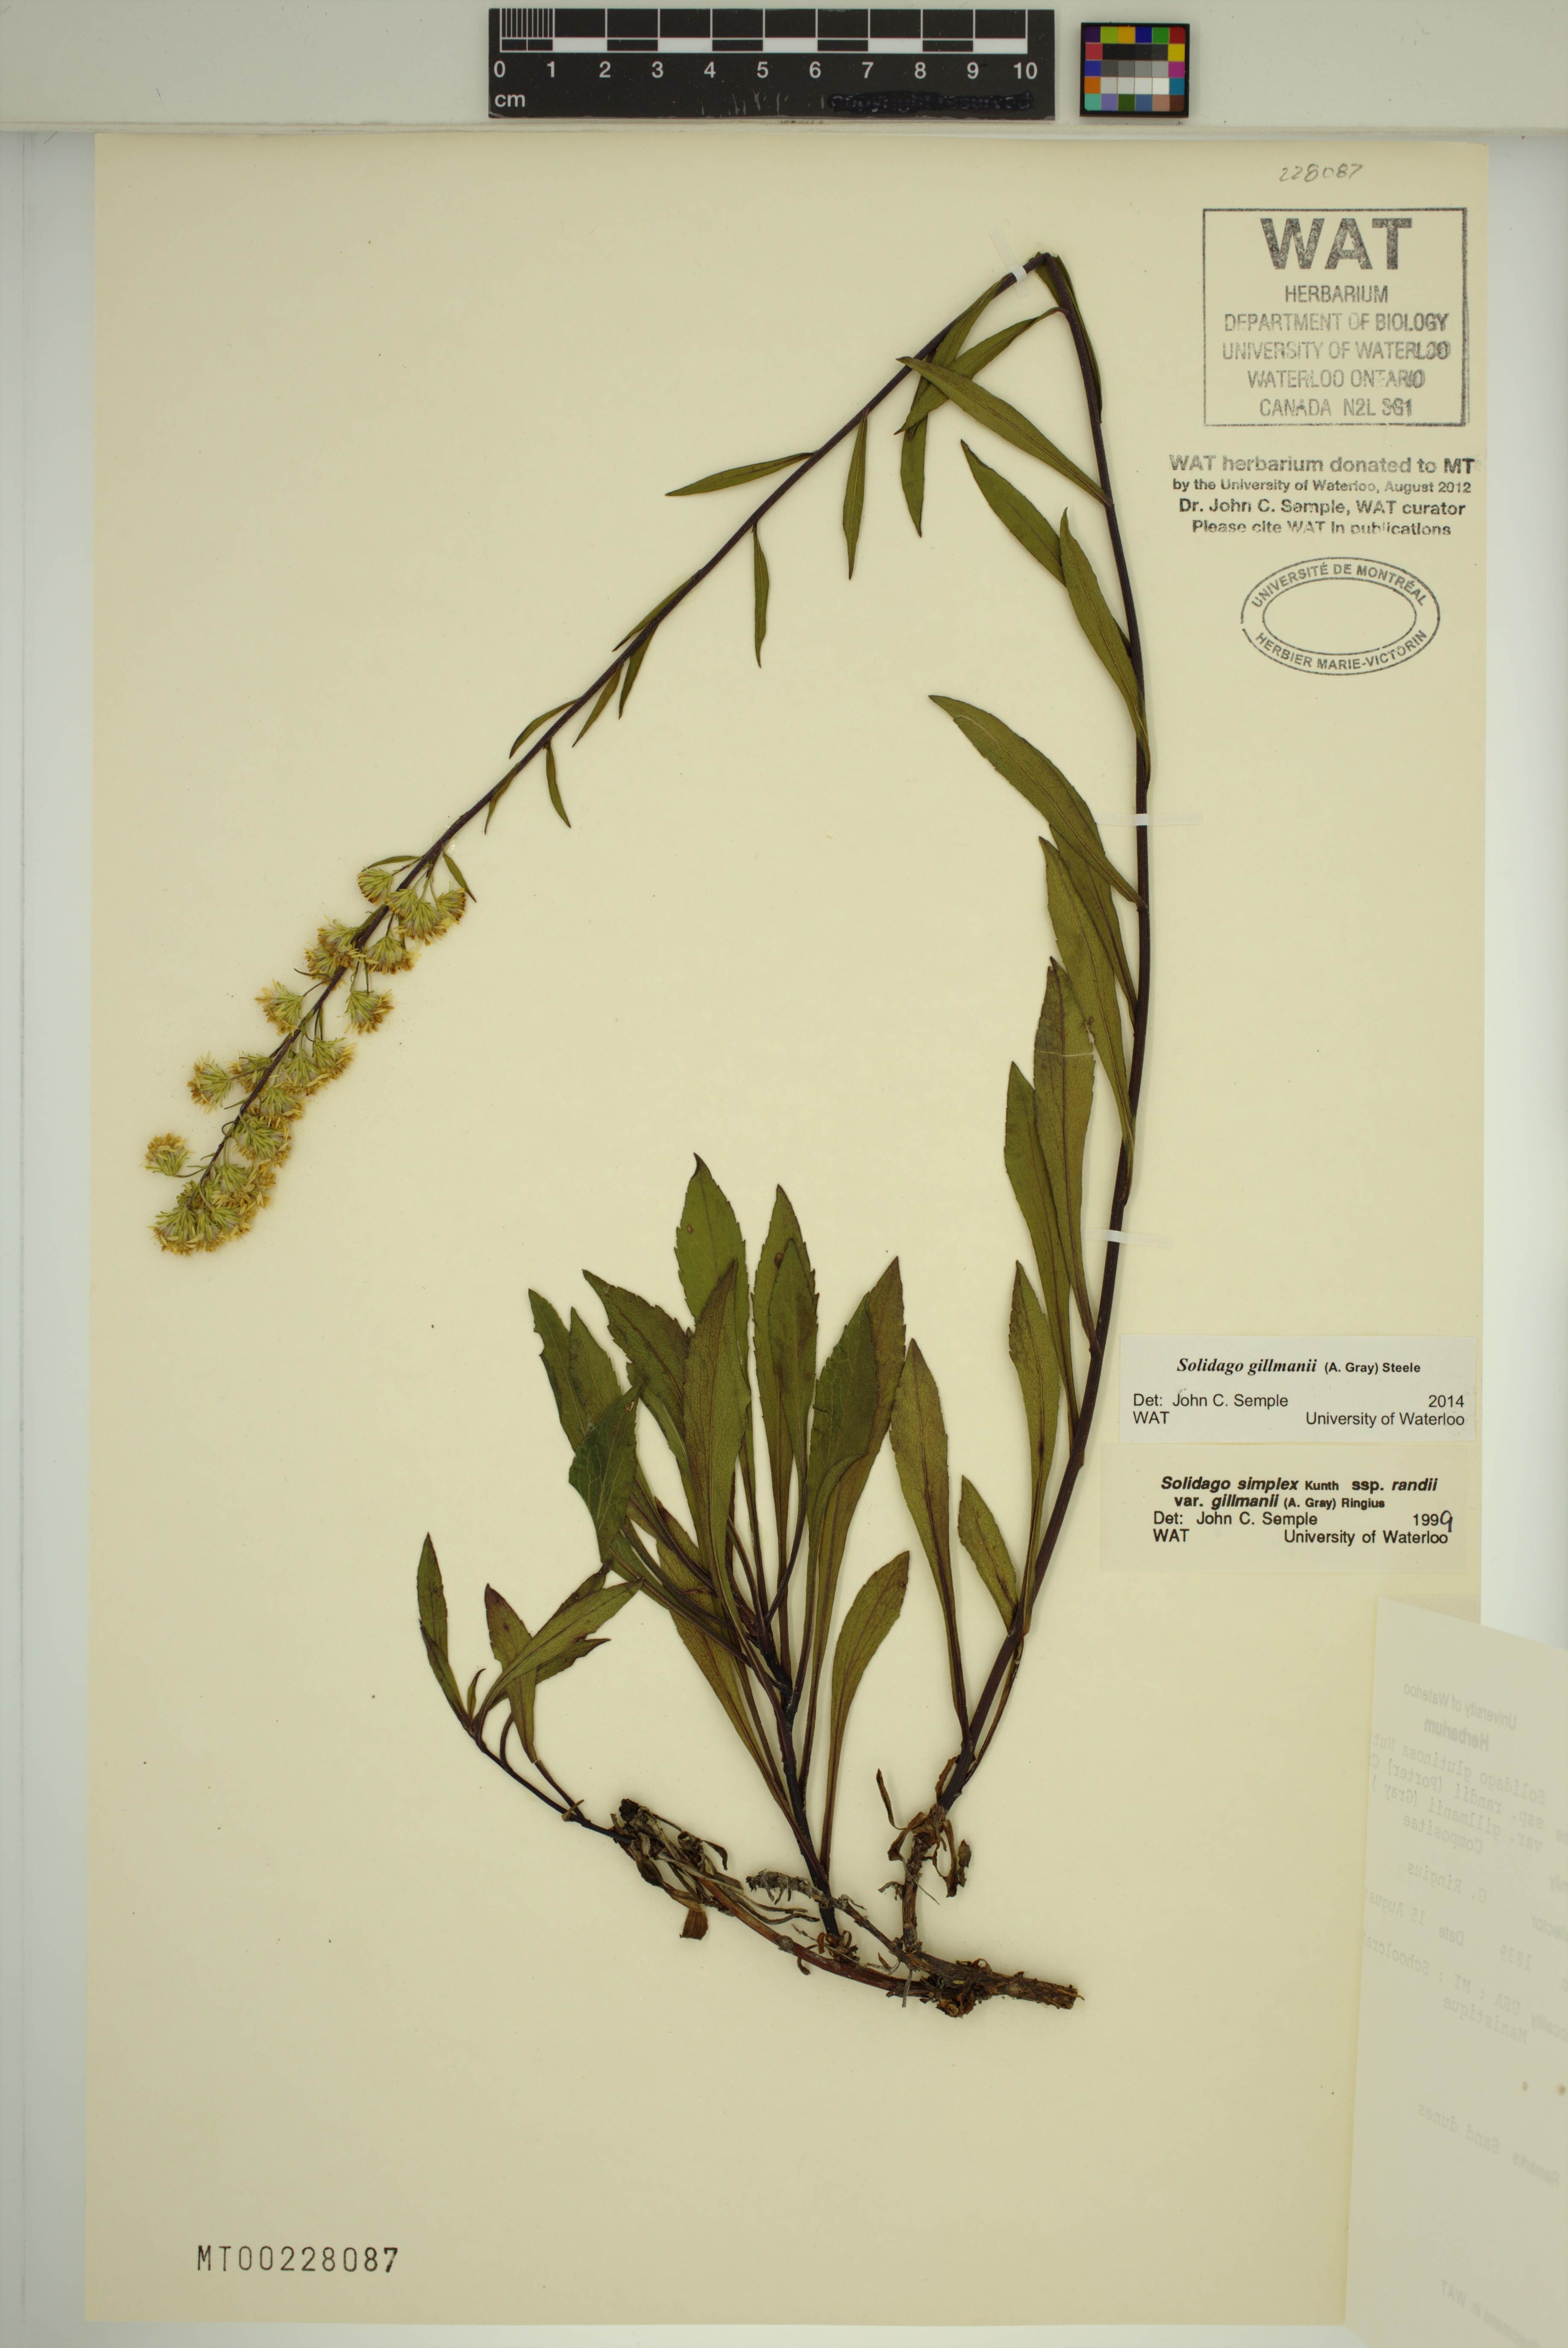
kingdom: Plantae
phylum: Tracheophyta
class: Magnoliopsida
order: Asterales
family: Asteraceae
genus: Solidago
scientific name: Solidago gillmanii
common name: Gillman's goldenrod
